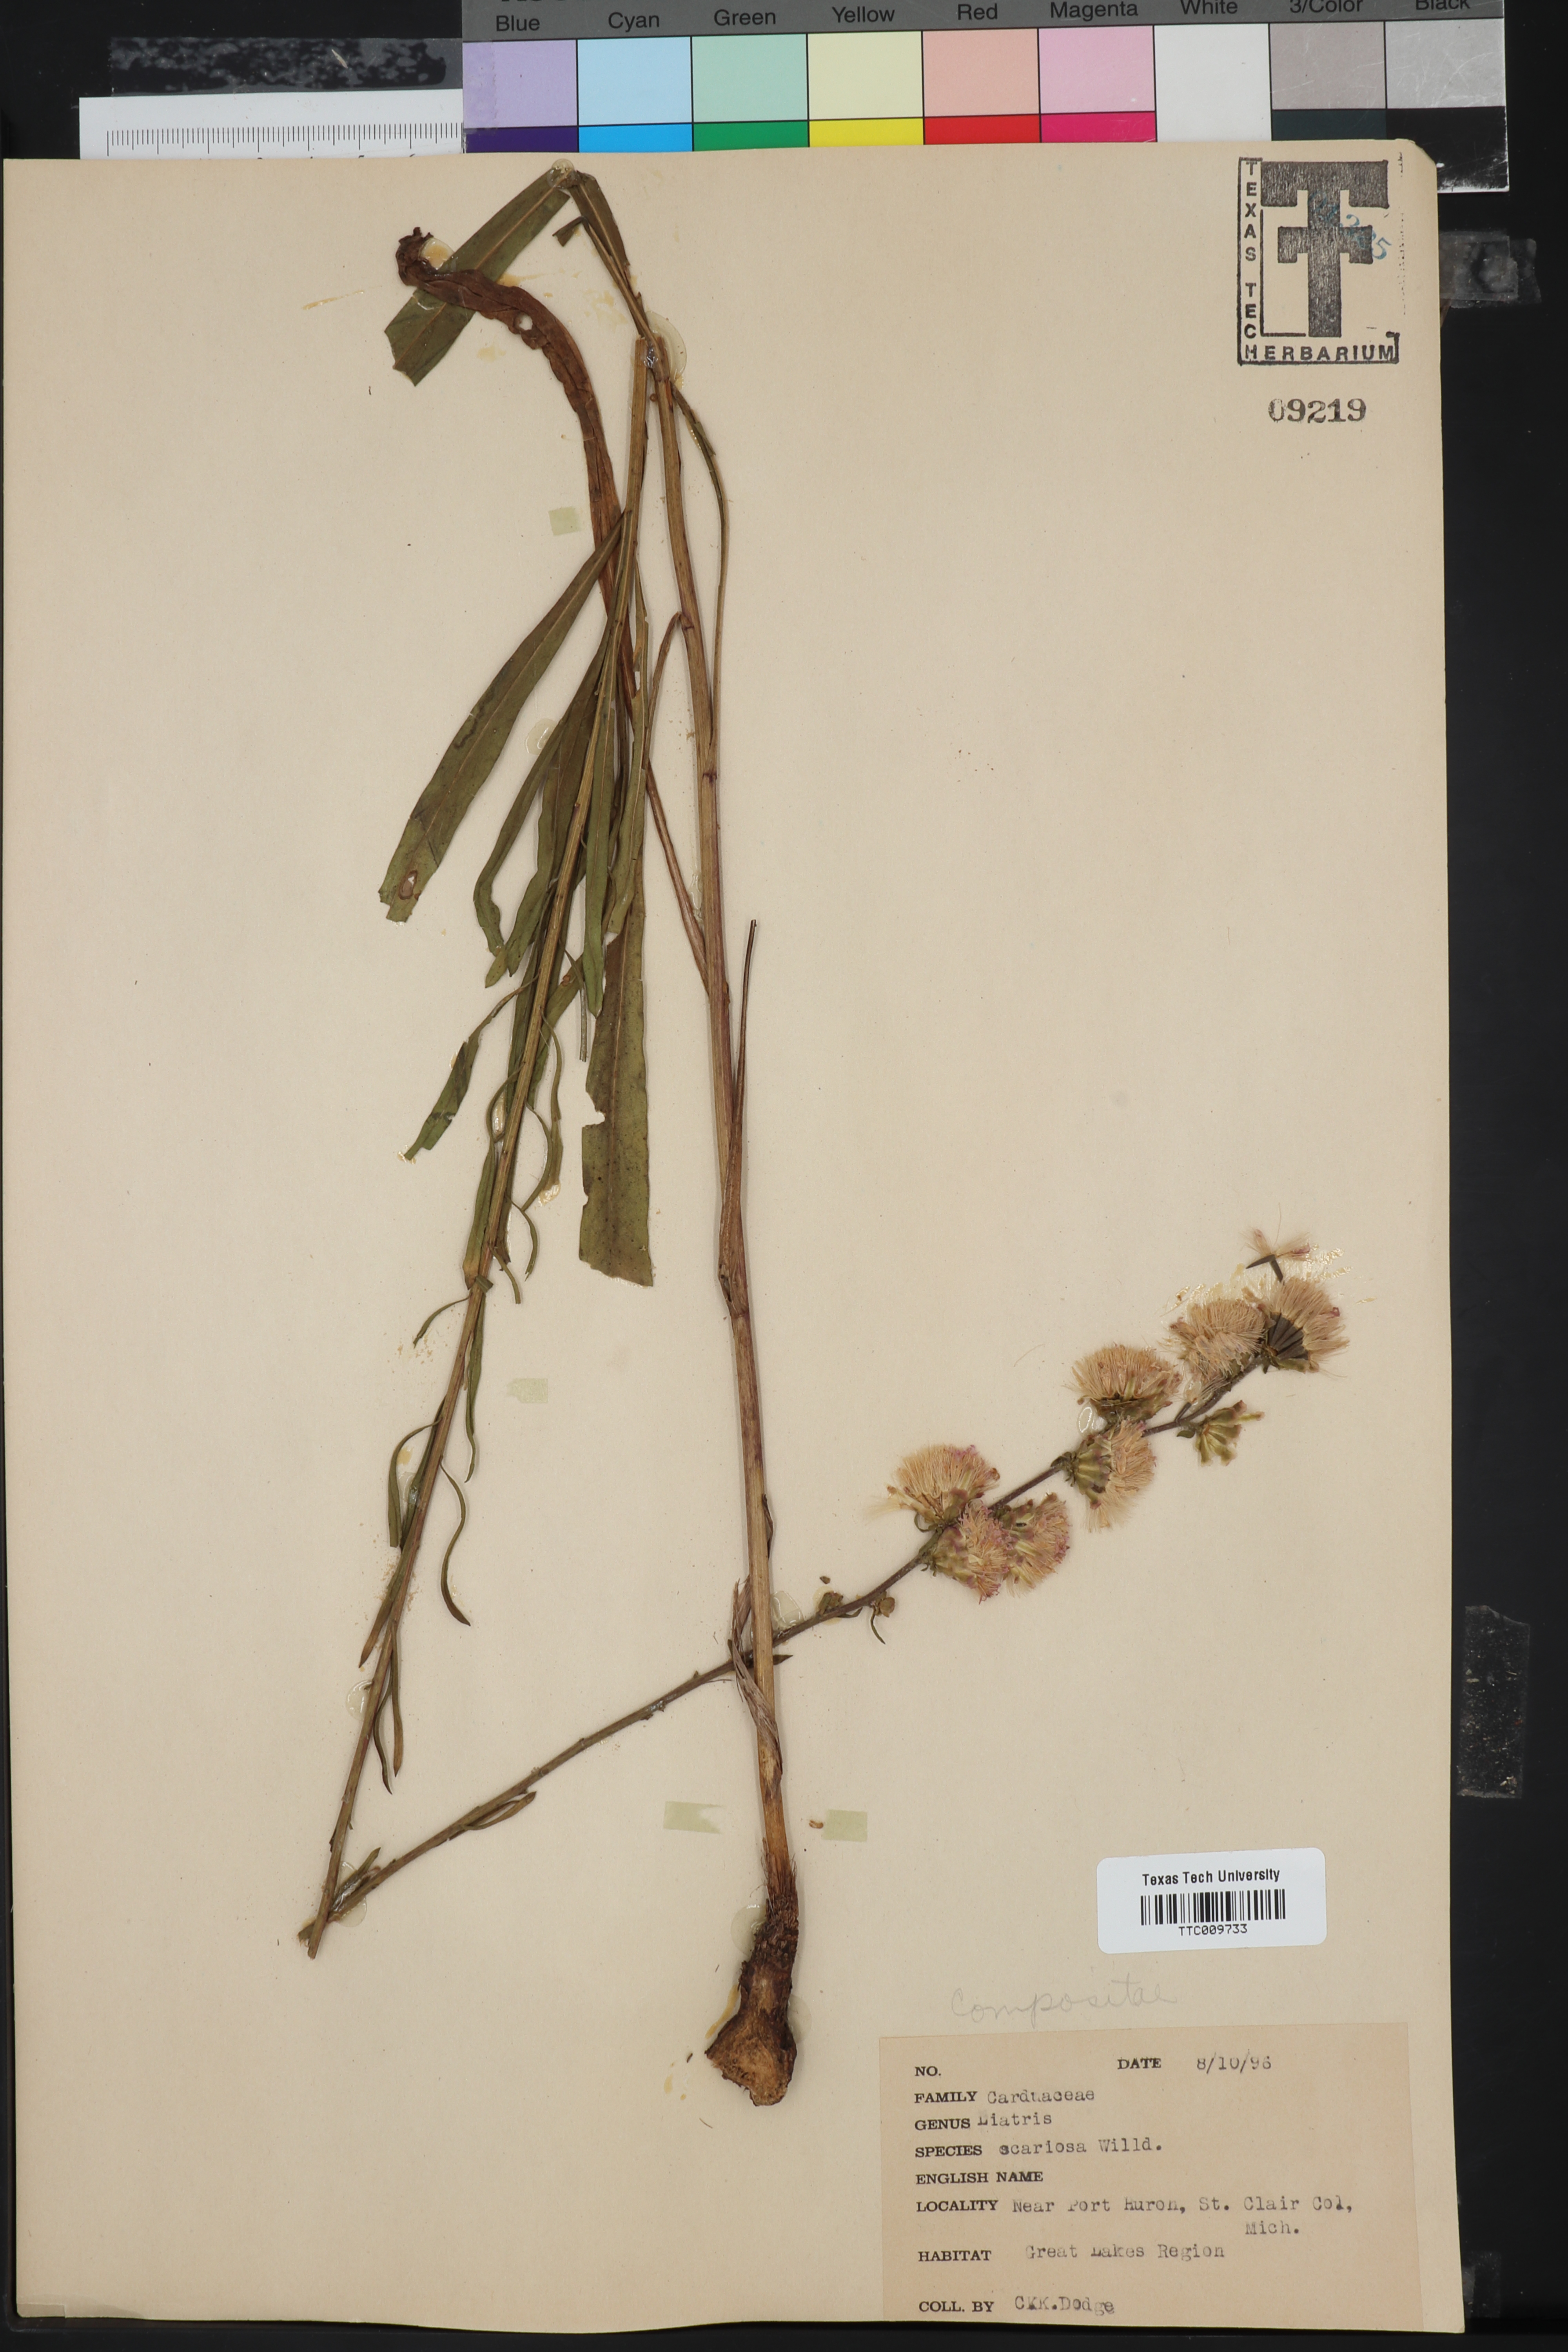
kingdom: Plantae
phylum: Tracheophyta
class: Magnoliopsida
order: Asterales
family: Asteraceae
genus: Liatris
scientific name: Liatris scariosa
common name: Northern gayfeather
